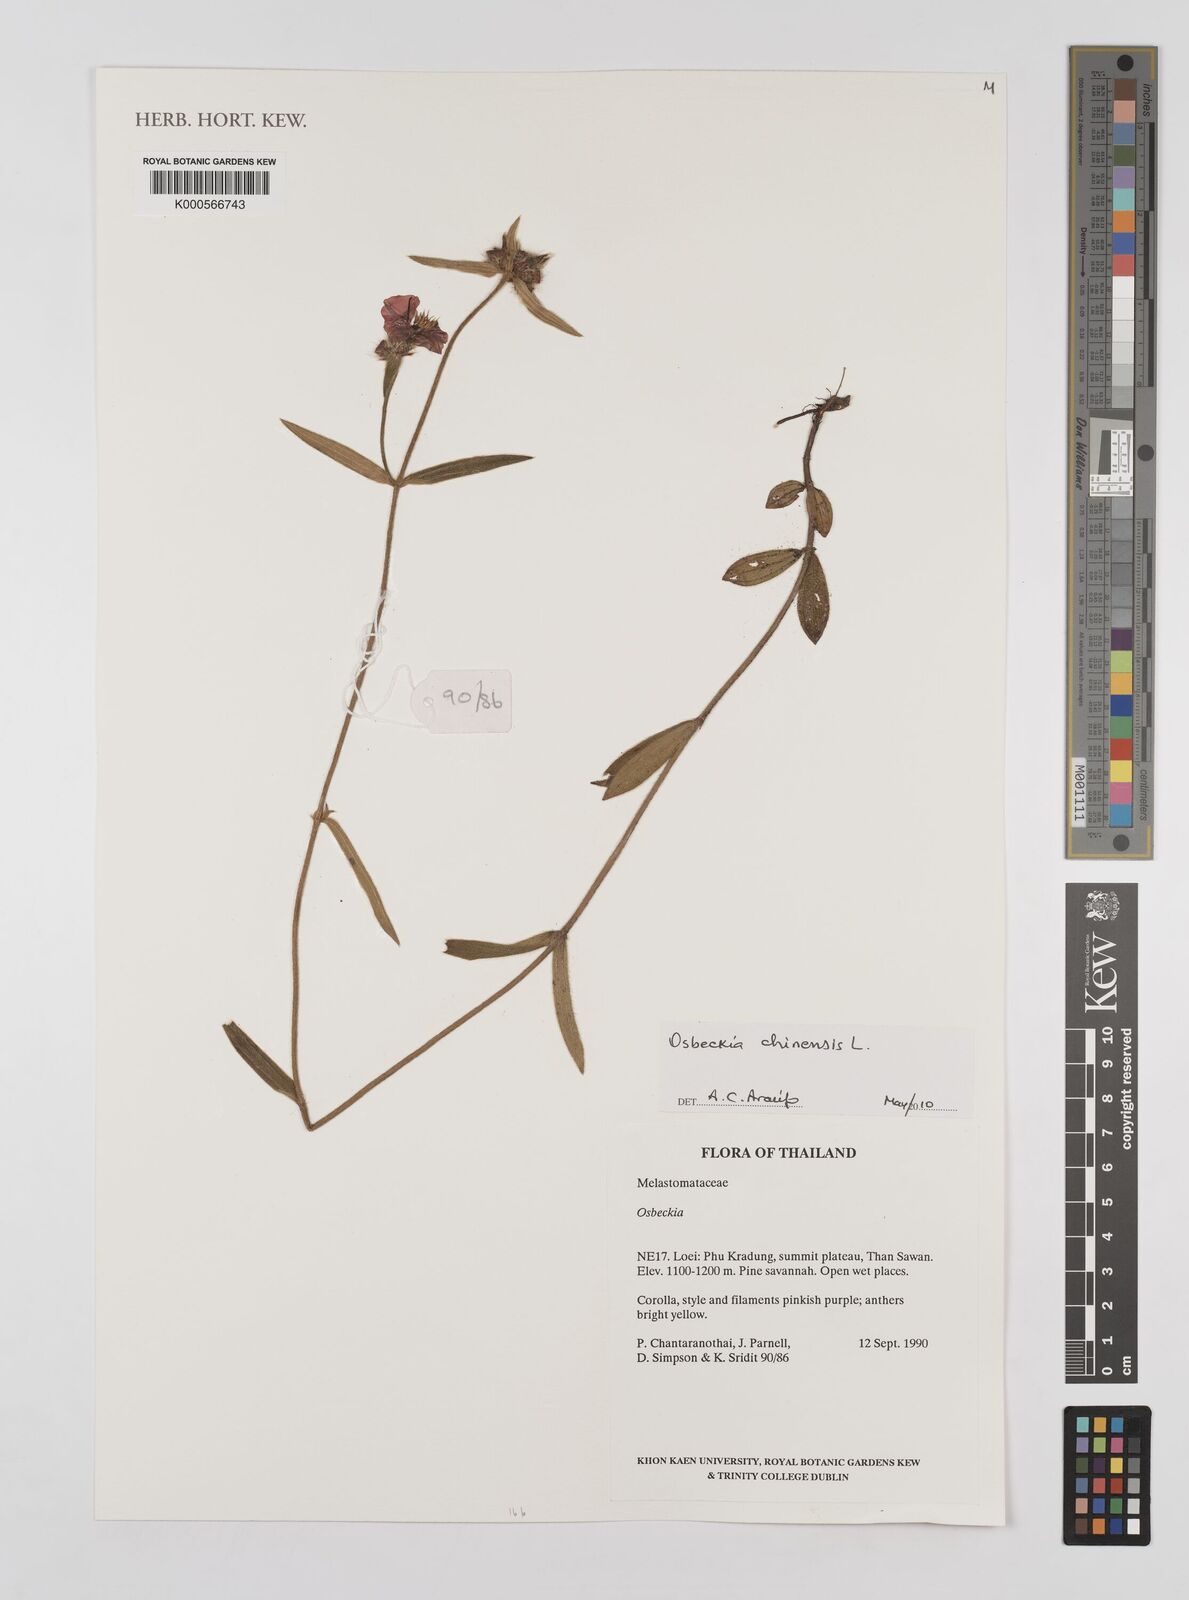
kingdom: Plantae
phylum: Tracheophyta
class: Magnoliopsida
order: Myrtales
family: Melastomataceae
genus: Osbeckia
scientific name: Osbeckia chinensis
